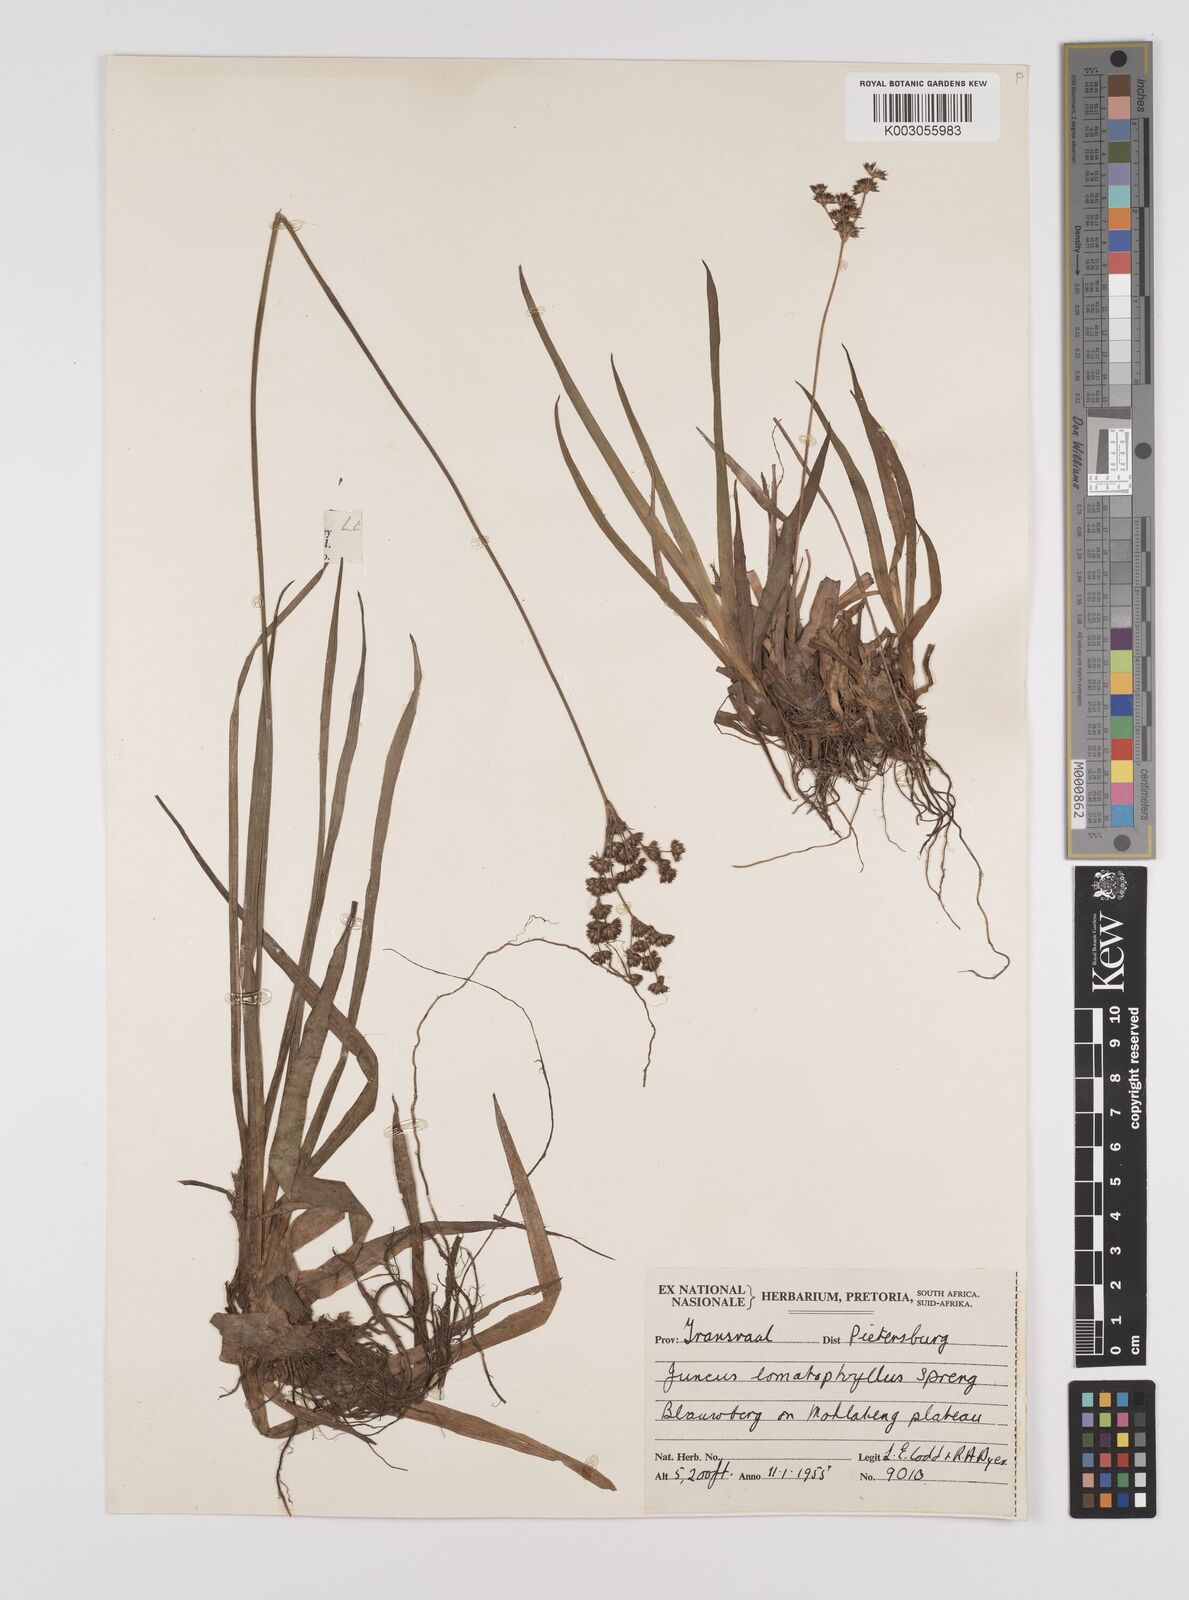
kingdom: Plantae
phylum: Tracheophyta
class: Liliopsida
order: Poales
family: Juncaceae
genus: Juncus
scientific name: Juncus lomatophyllus
